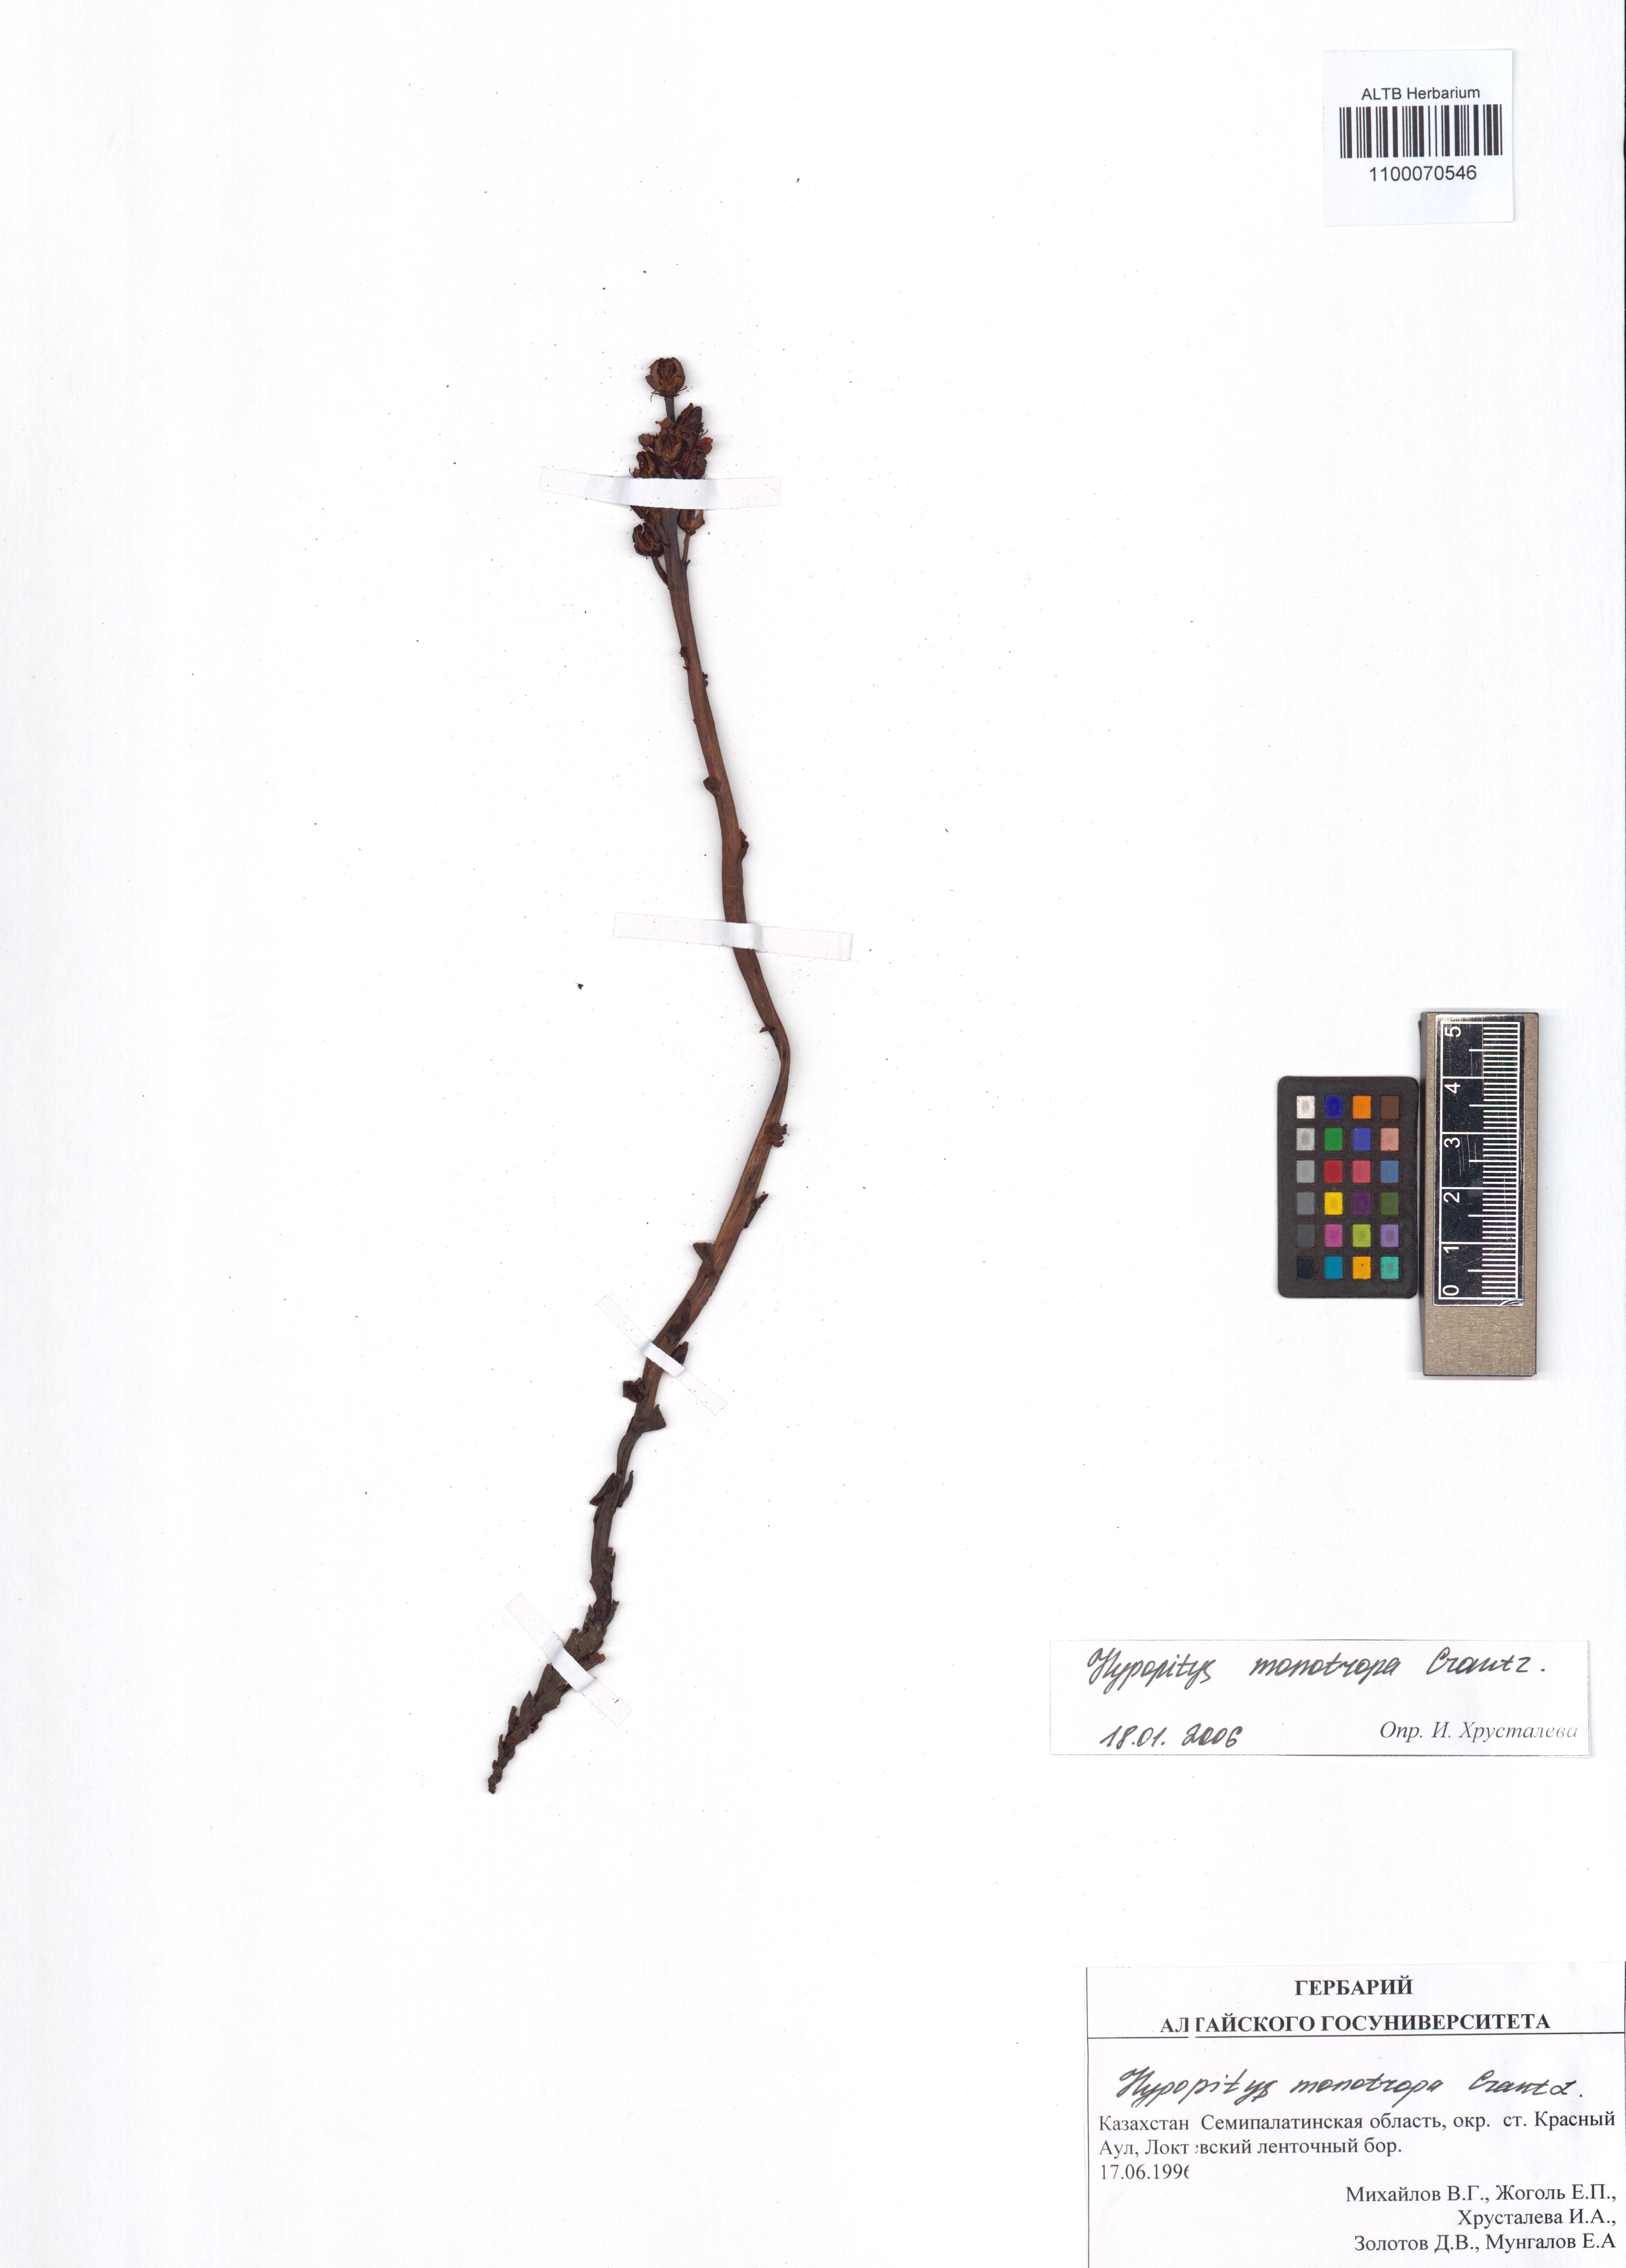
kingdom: Plantae
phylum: Tracheophyta
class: Magnoliopsida
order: Ericales
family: Ericaceae
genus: Hypopitys
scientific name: Hypopitys monotropa
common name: Yellow bird's-nest
